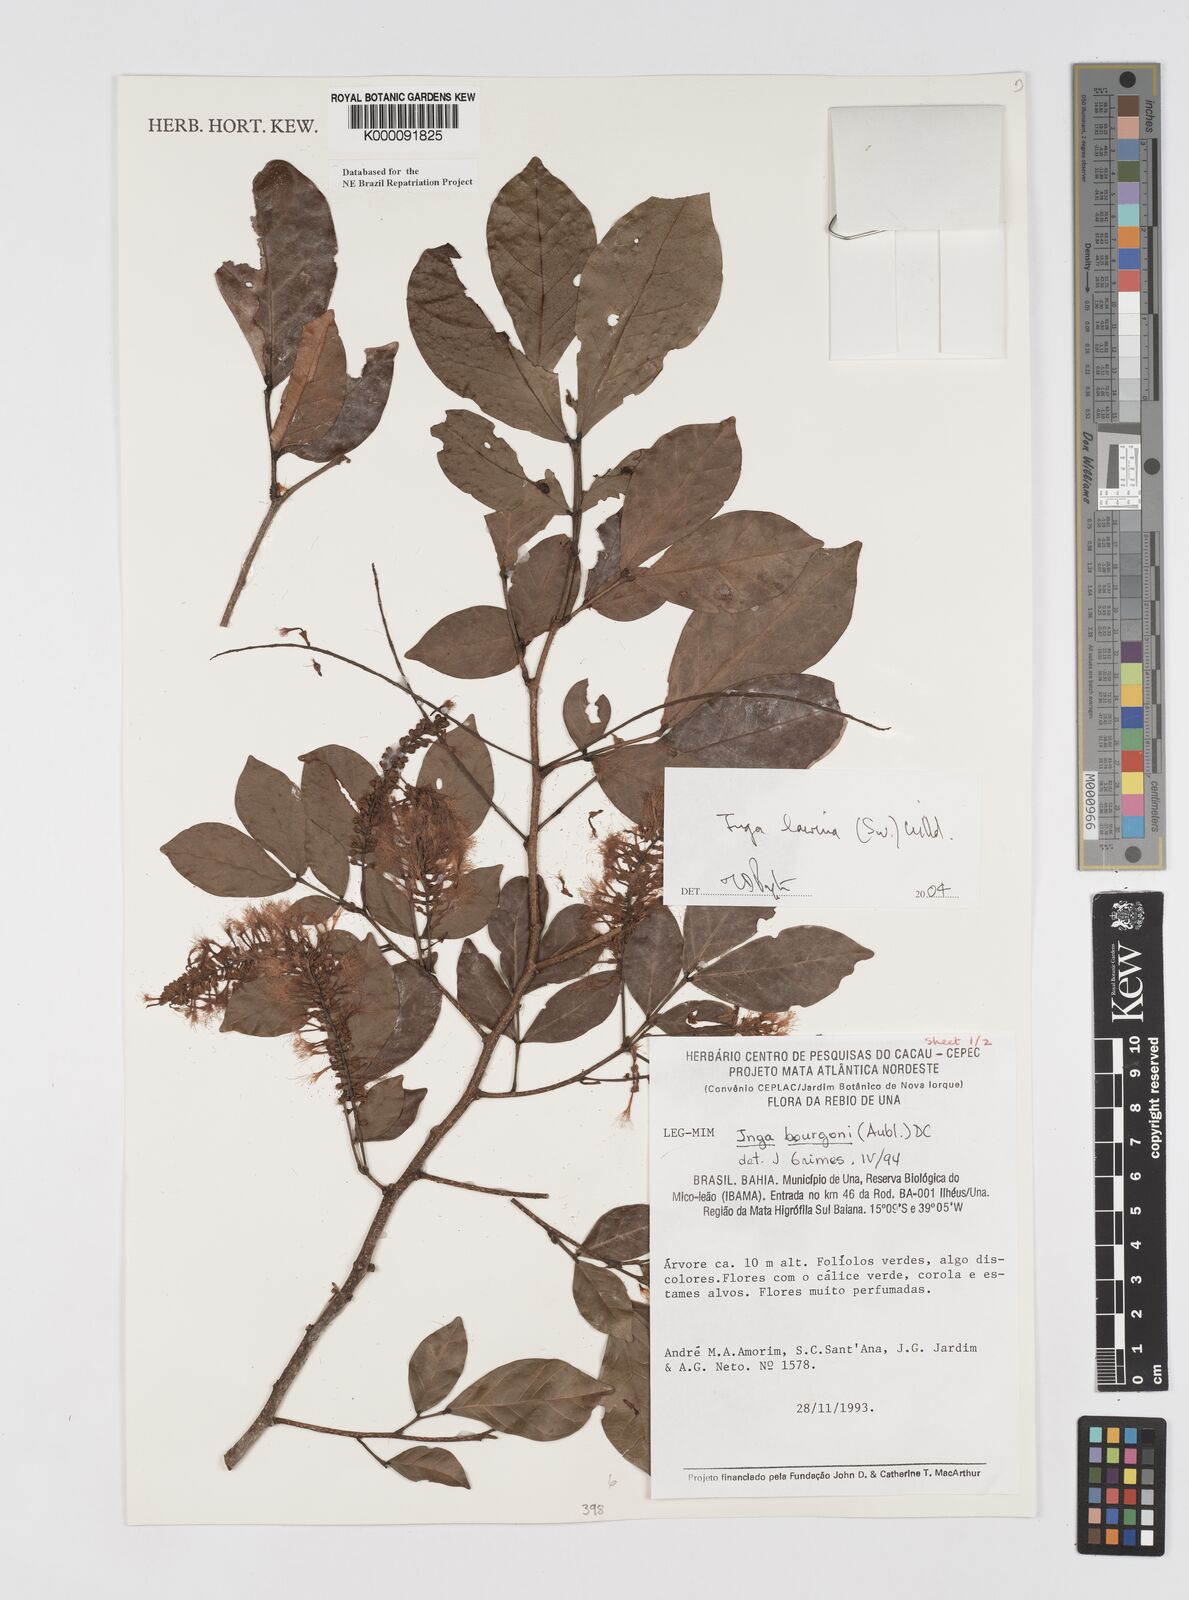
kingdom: Plantae
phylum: Tracheophyta
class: Magnoliopsida
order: Fabales
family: Fabaceae
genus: Inga
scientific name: Inga bourgoni
